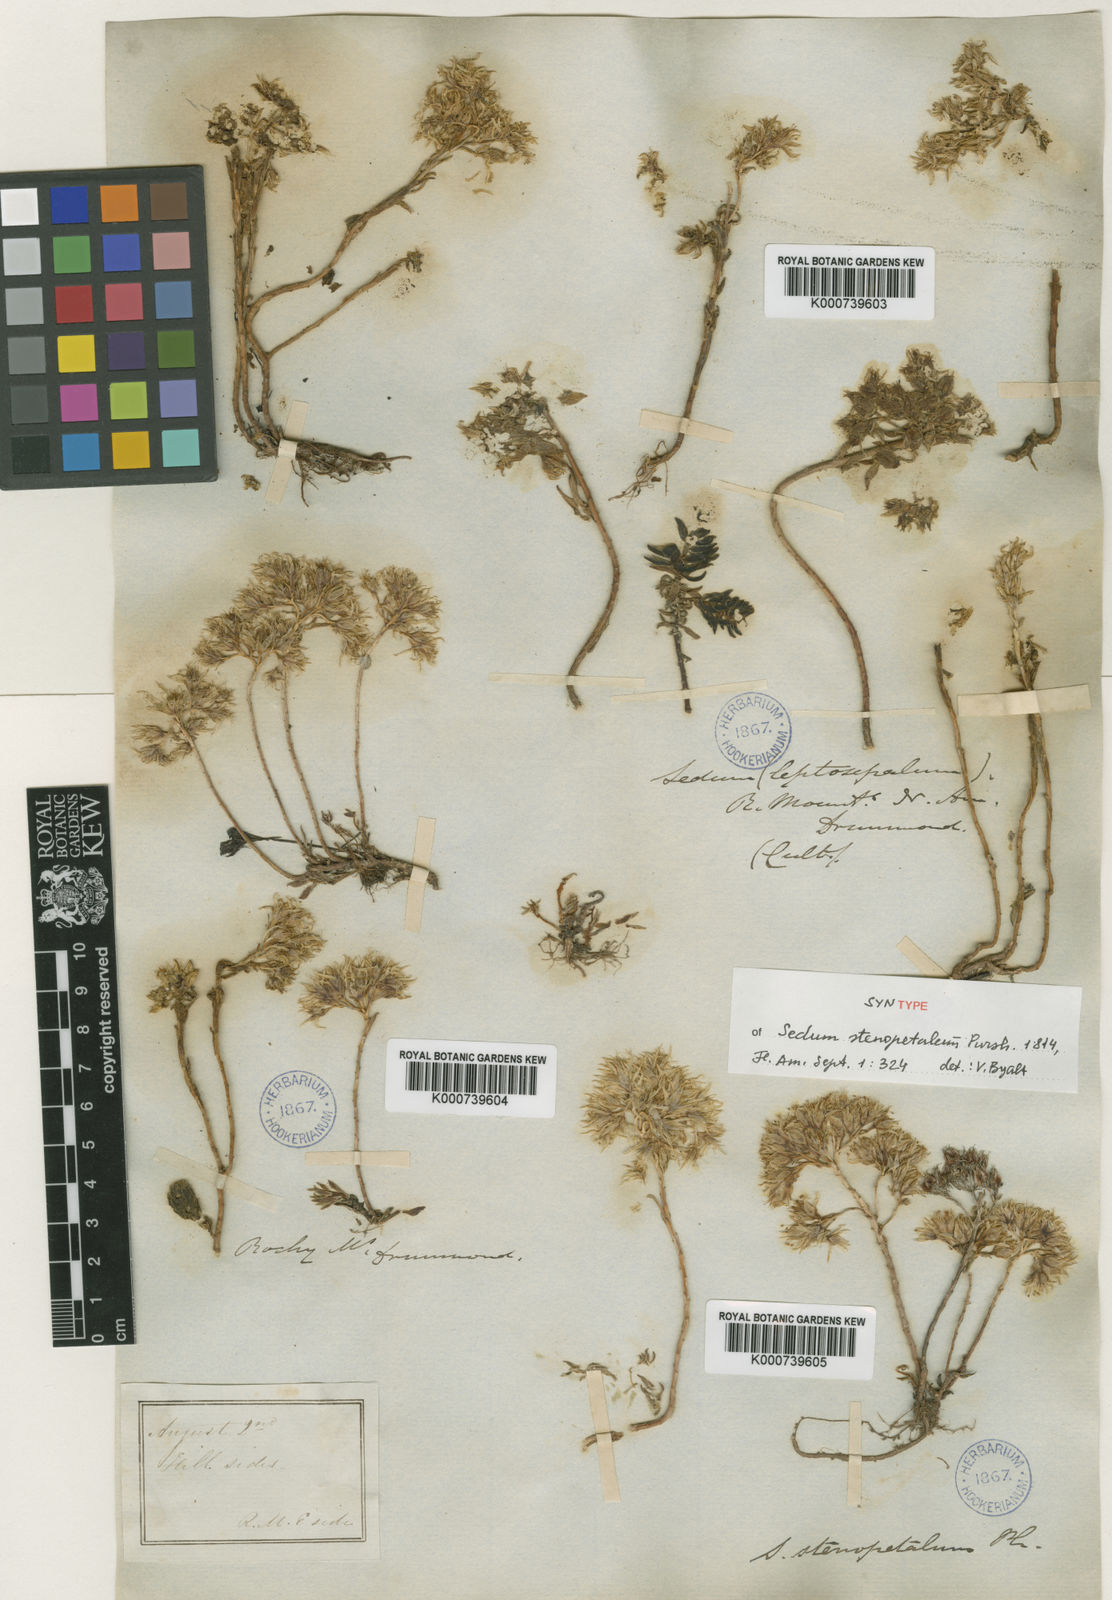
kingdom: Plantae
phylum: Tracheophyta
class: Magnoliopsida
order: Saxifragales
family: Crassulaceae
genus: Sedum
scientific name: Sedum stenopetalum
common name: Narrow-petaled stonecrop
